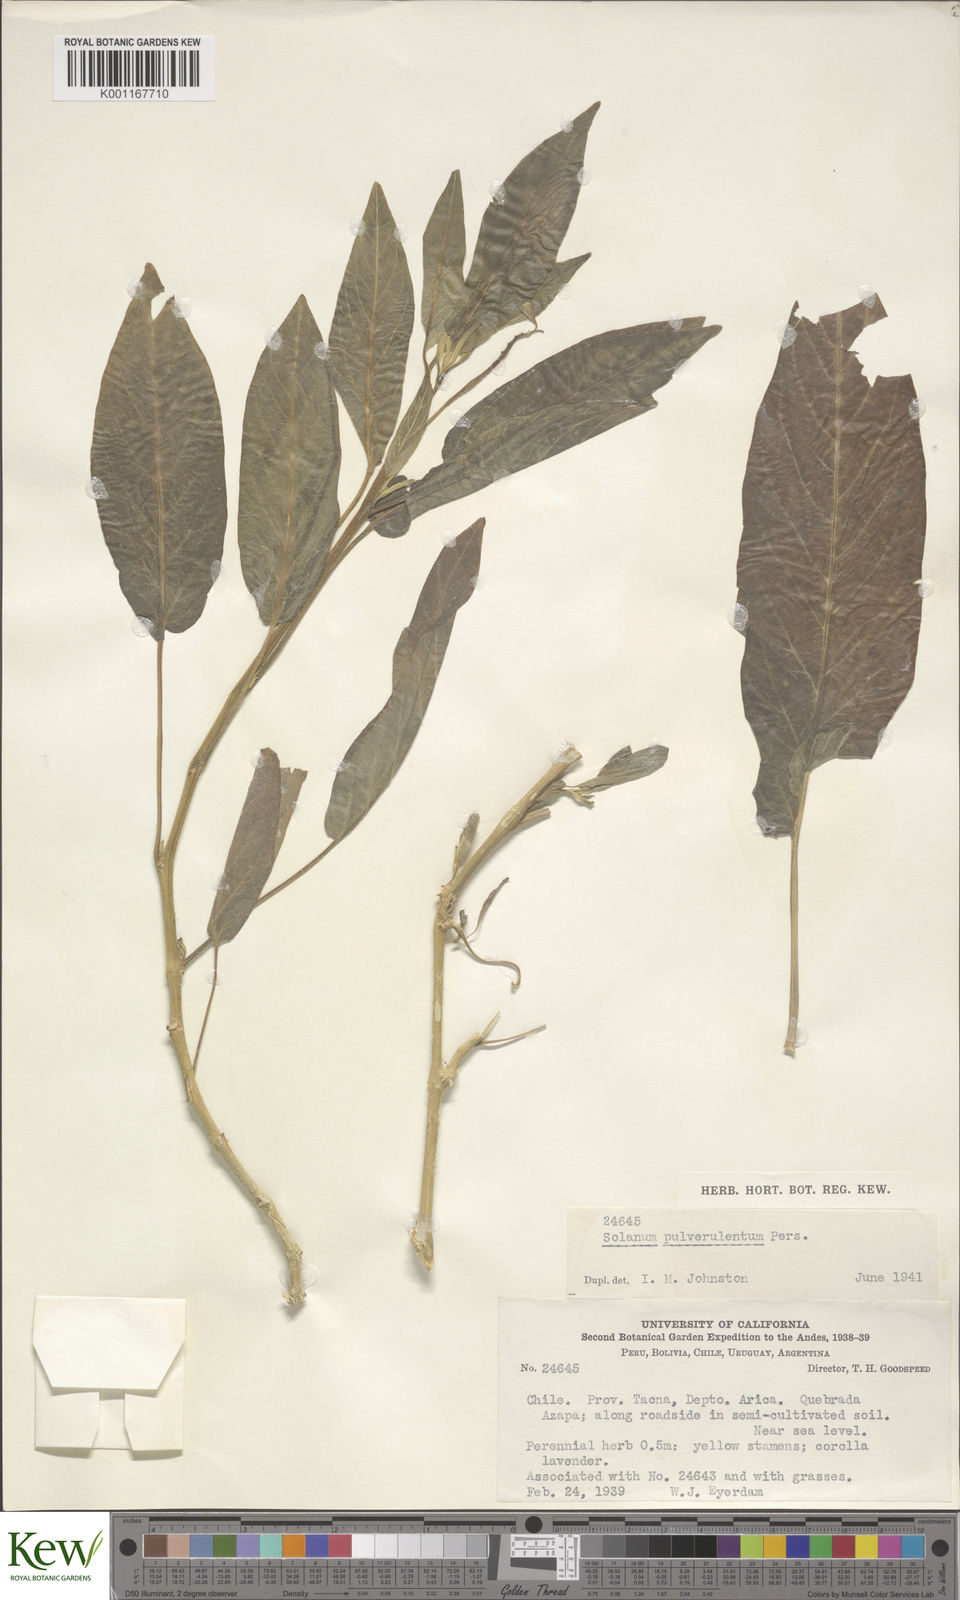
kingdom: Plantae
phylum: Tracheophyta
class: Magnoliopsida
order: Solanales
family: Solanaceae
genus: Solanum
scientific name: Solanum cutervanum
